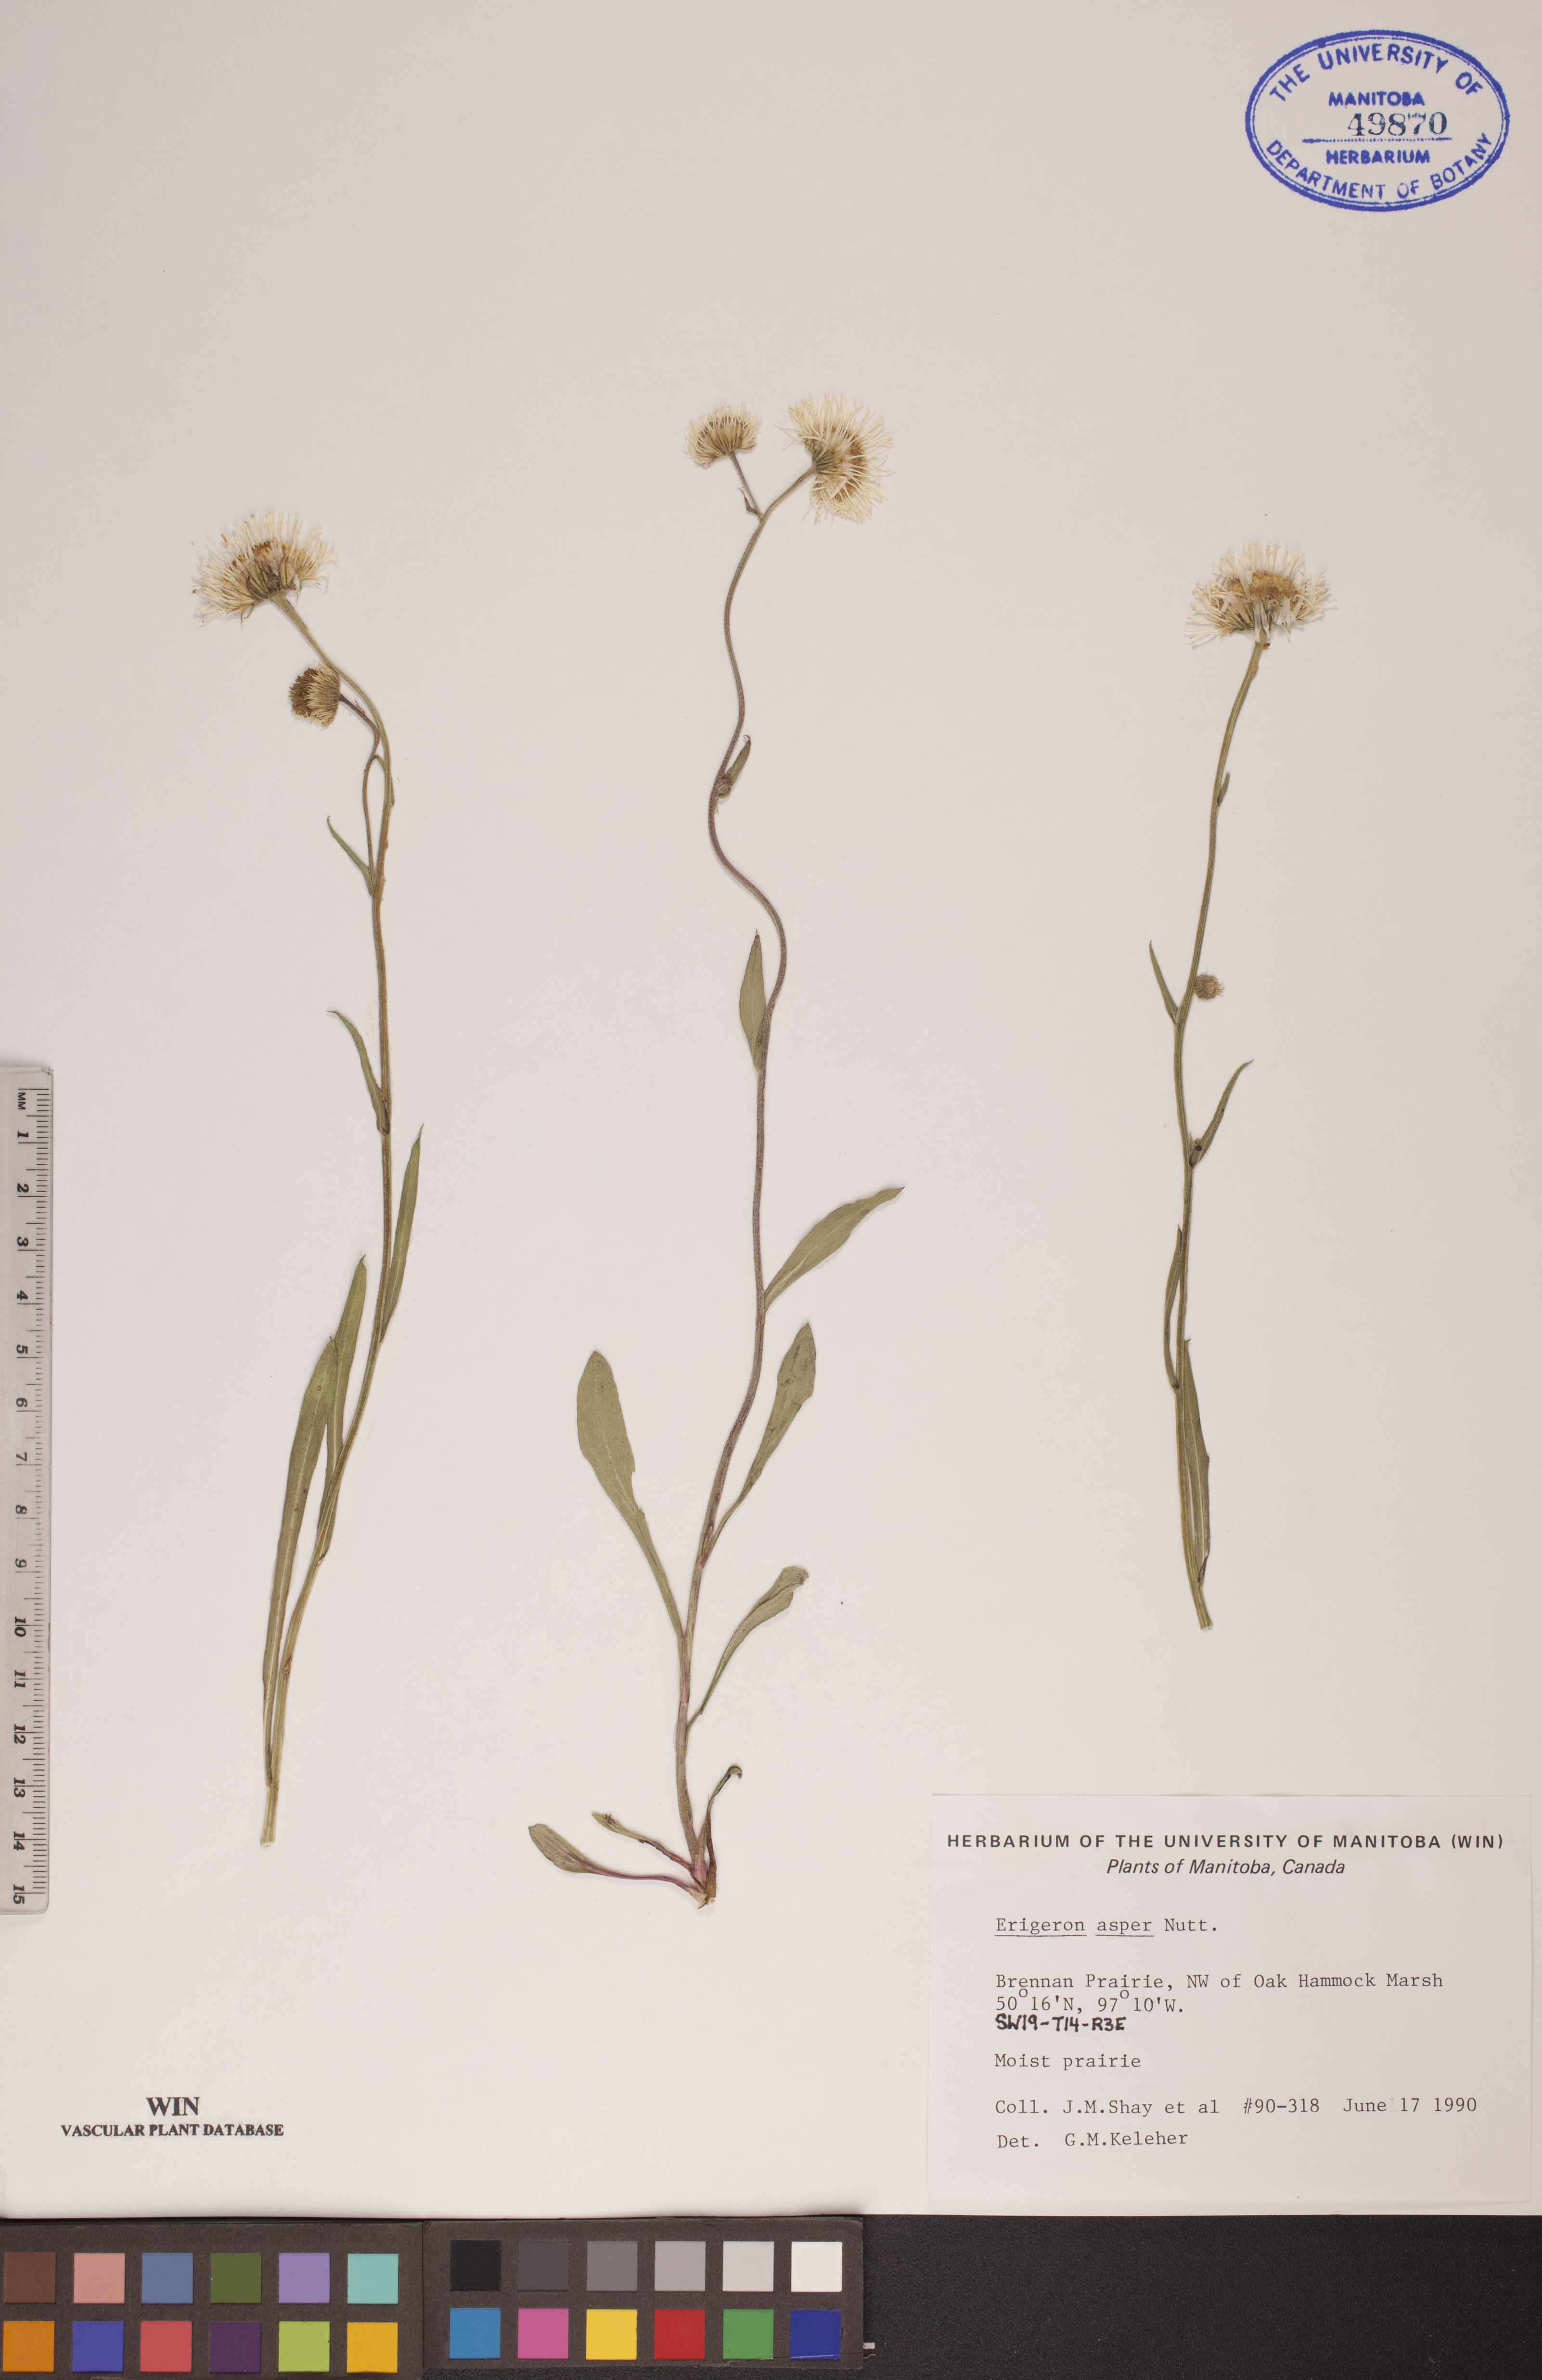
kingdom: Plantae
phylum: Tracheophyta
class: Magnoliopsida
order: Asterales
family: Asteraceae
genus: Erigeron
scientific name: Erigeron glabellus
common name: Smooth fleabane
